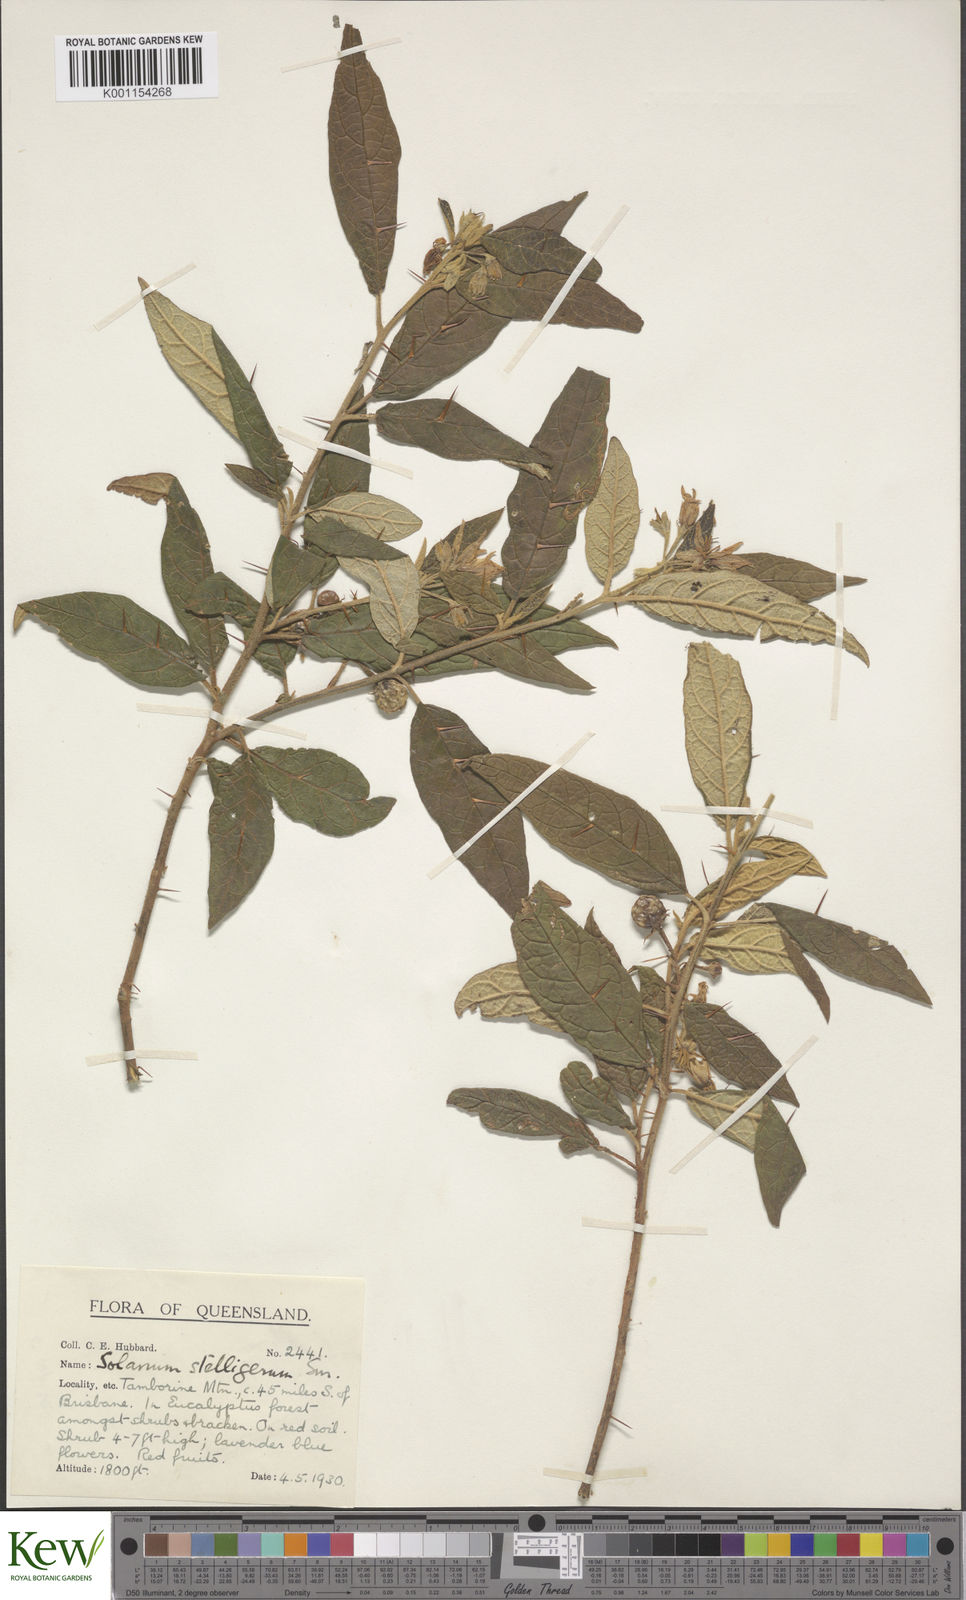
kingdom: Plantae
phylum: Tracheophyta
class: Magnoliopsida
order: Solanales
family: Solanaceae
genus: Solanum
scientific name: Solanum stelligerum
